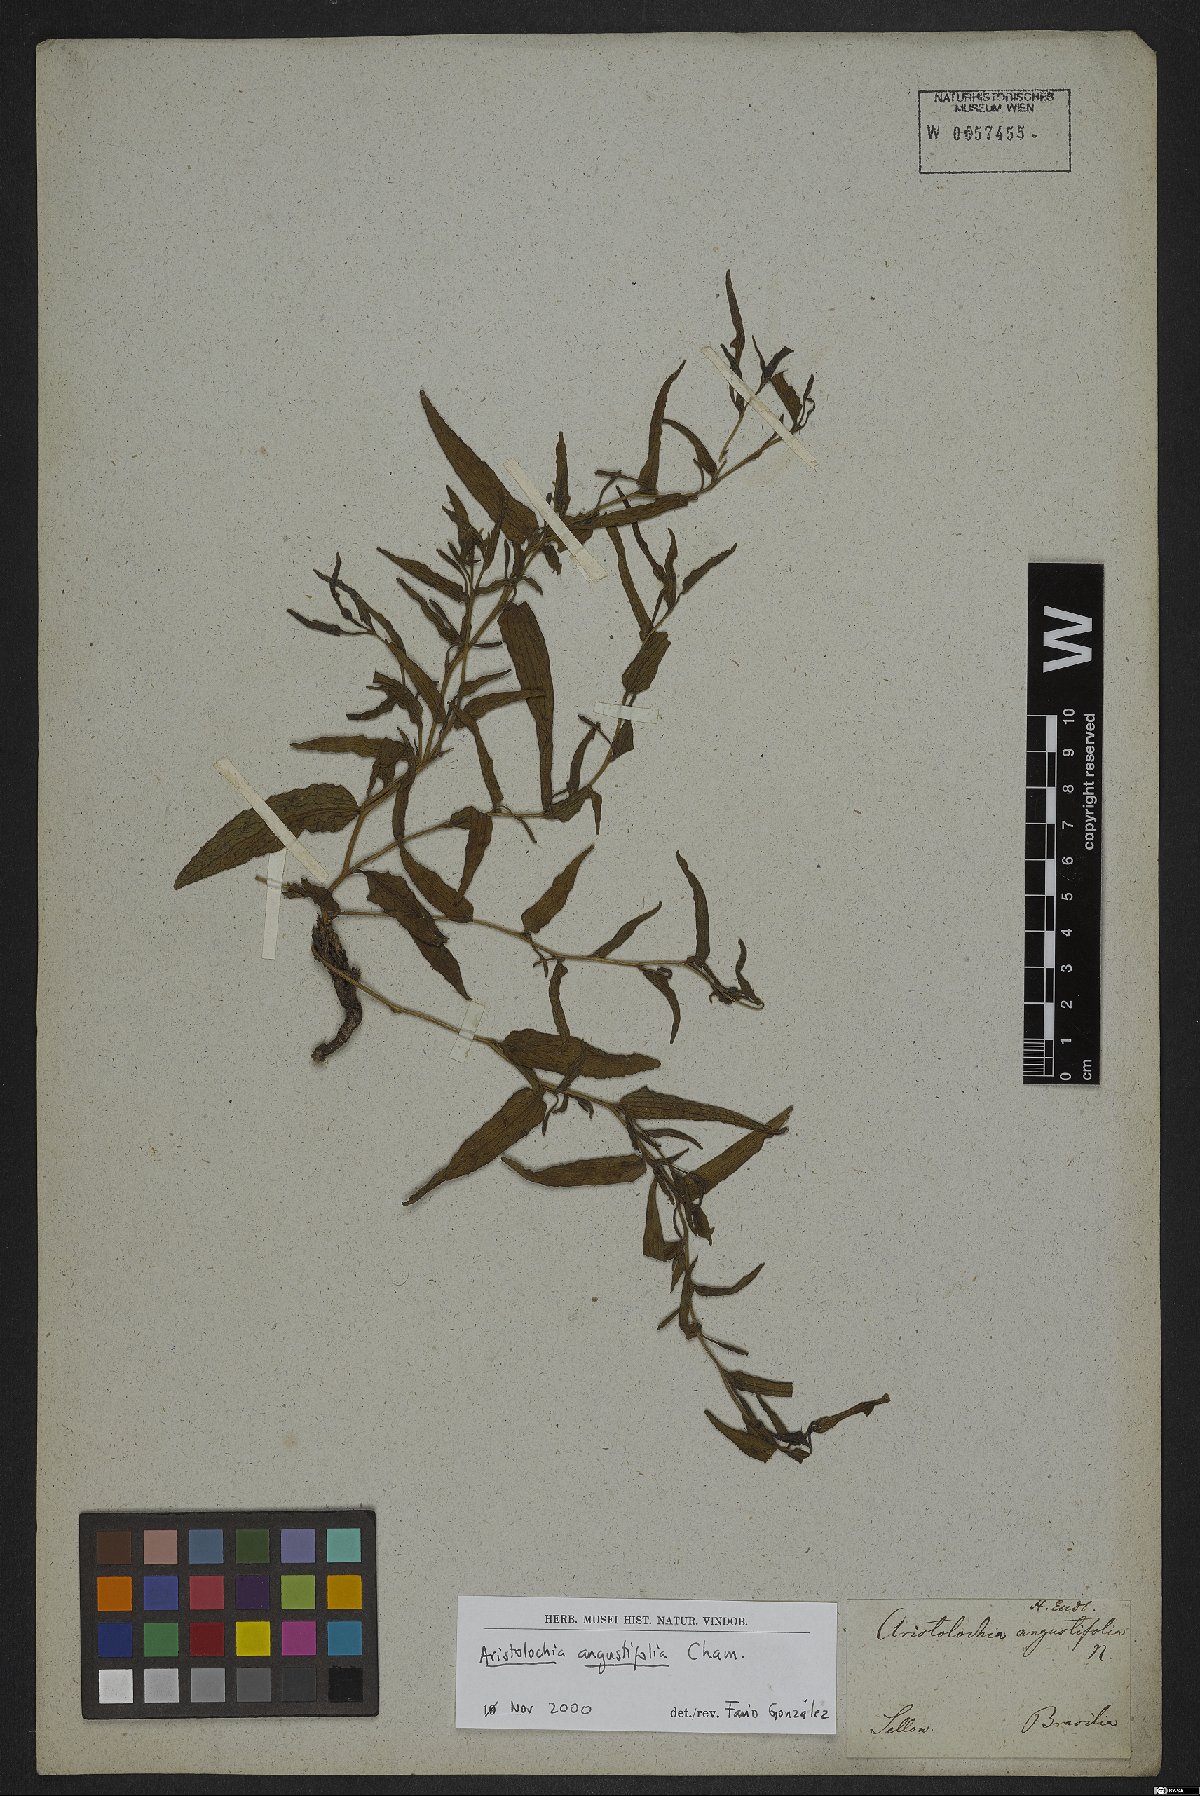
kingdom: Plantae
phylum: Tracheophyta
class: Magnoliopsida
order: Piperales
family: Aristolochiaceae
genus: Aristolochia
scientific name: Aristolochia angustifolia
